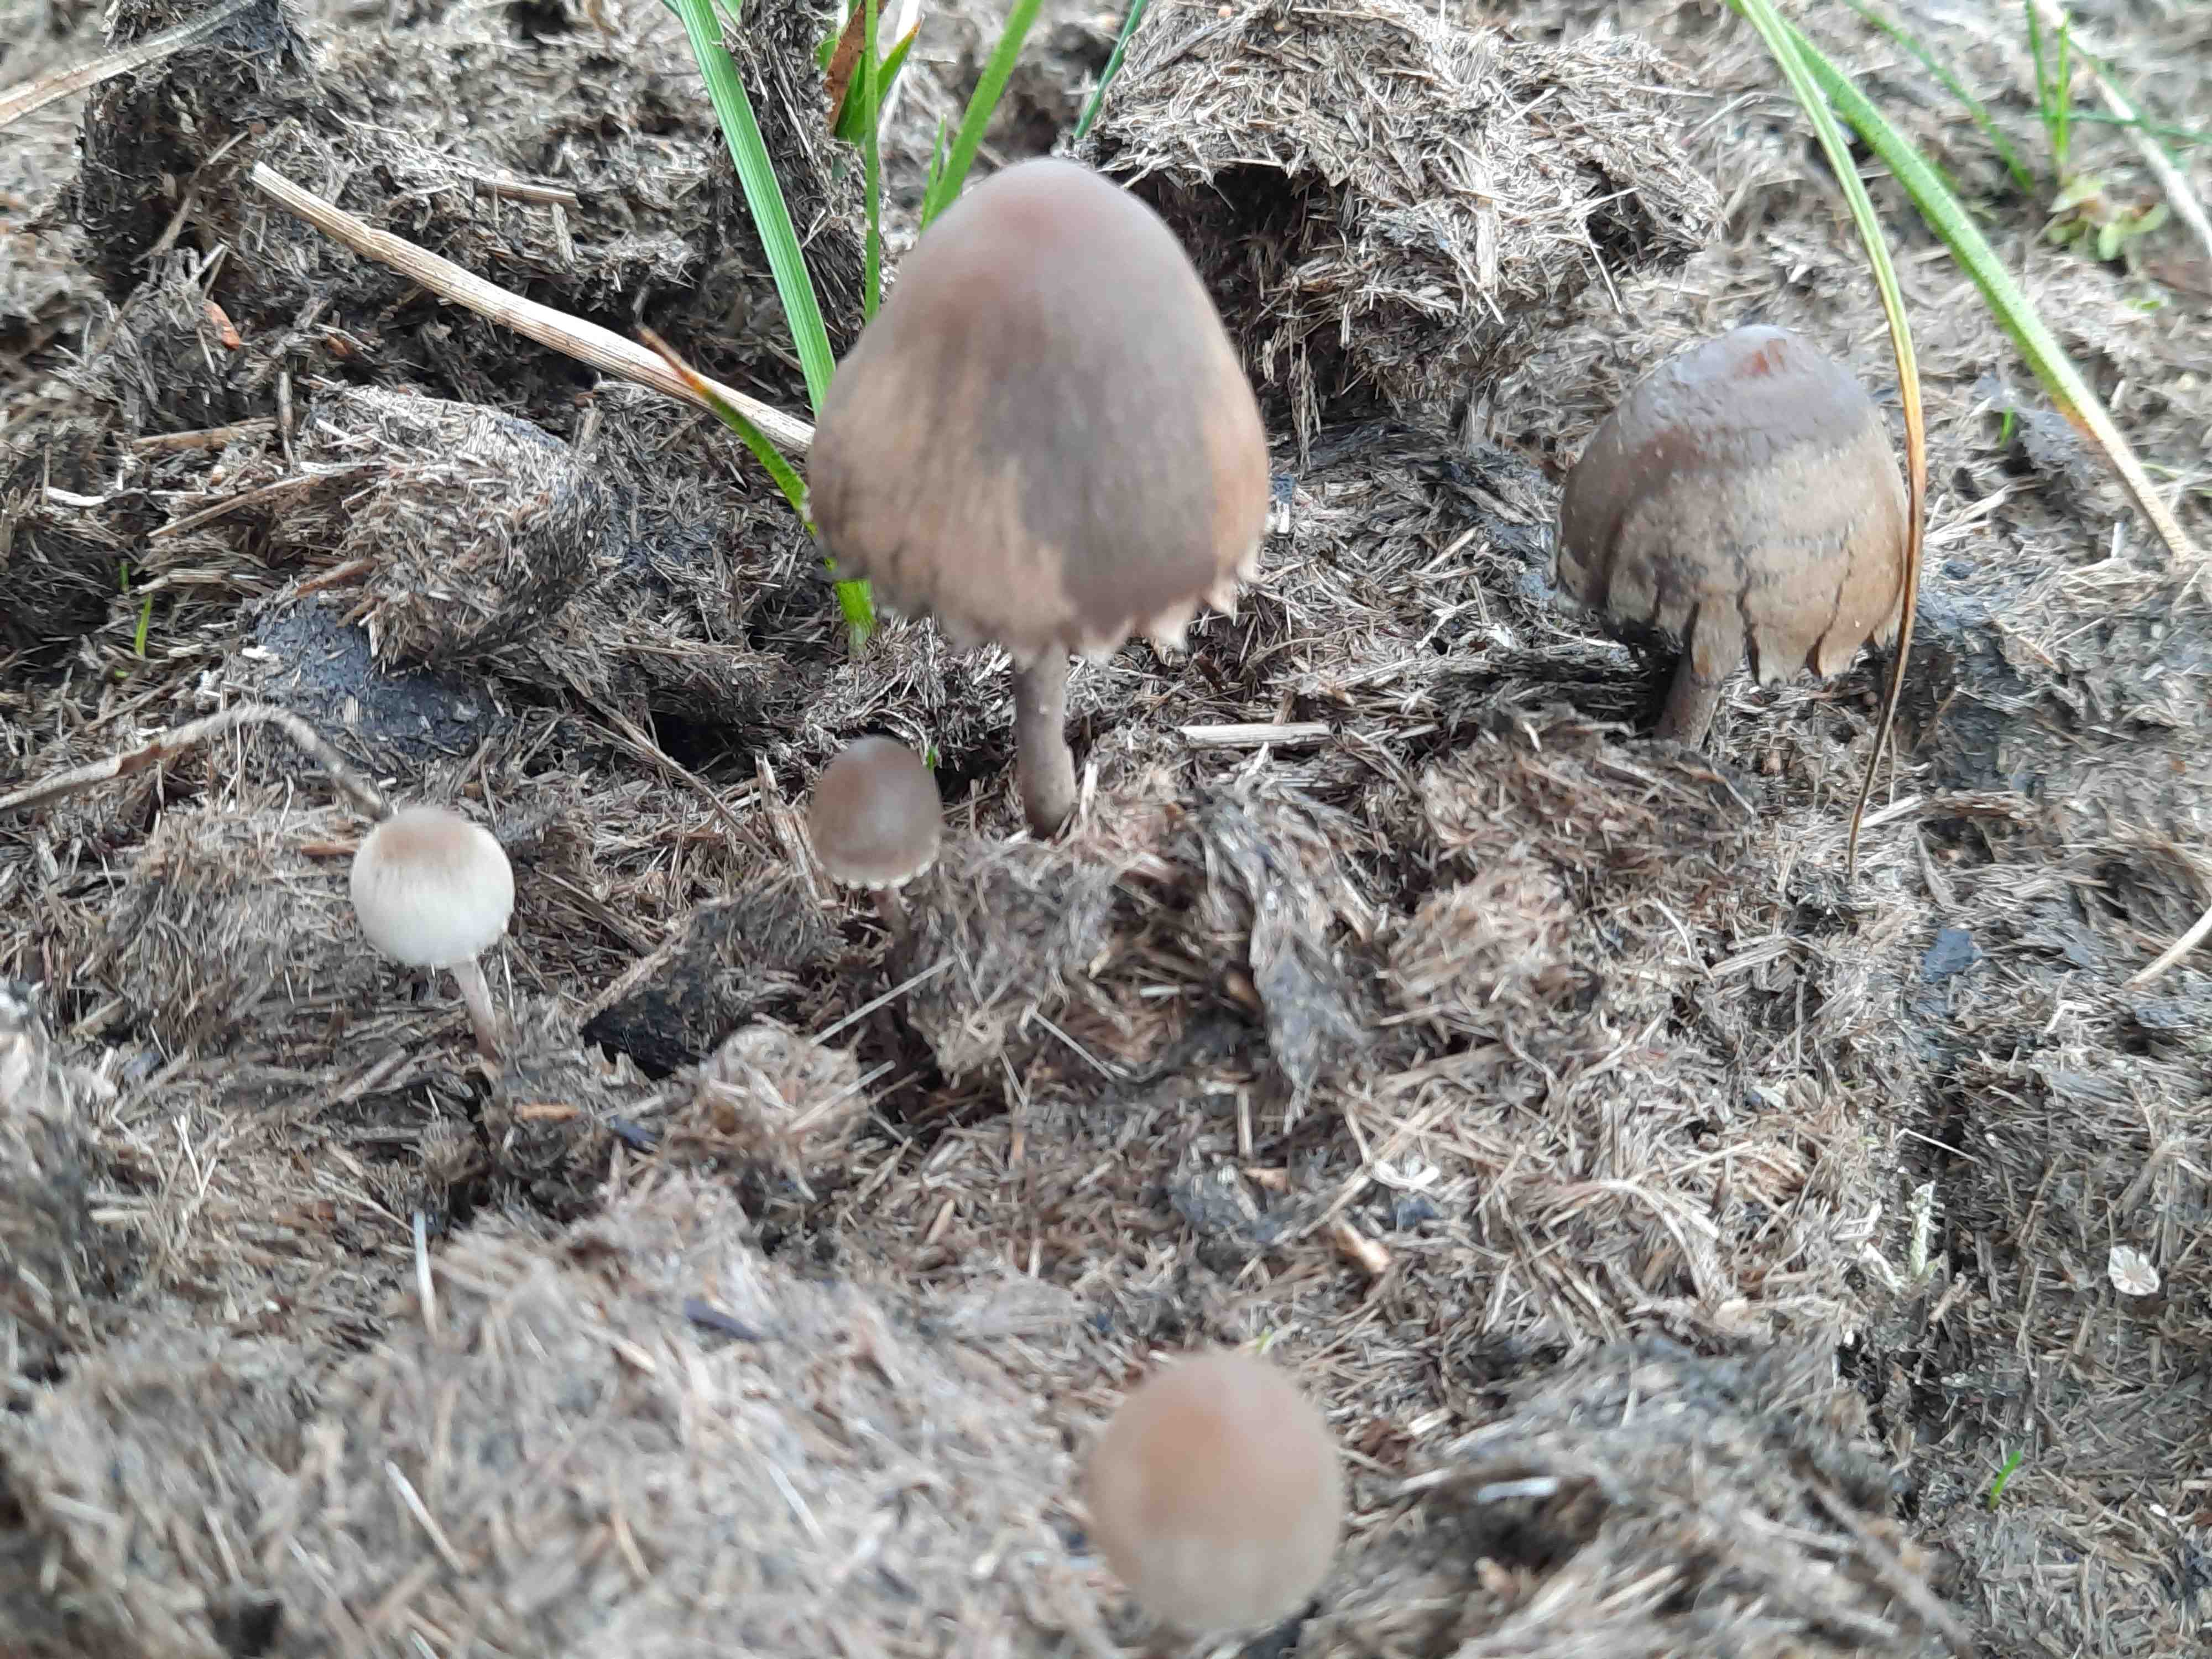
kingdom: Fungi
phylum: Basidiomycota
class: Agaricomycetes
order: Agaricales
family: Bolbitiaceae
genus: Panaeolus
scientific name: Panaeolus papilionaceus
